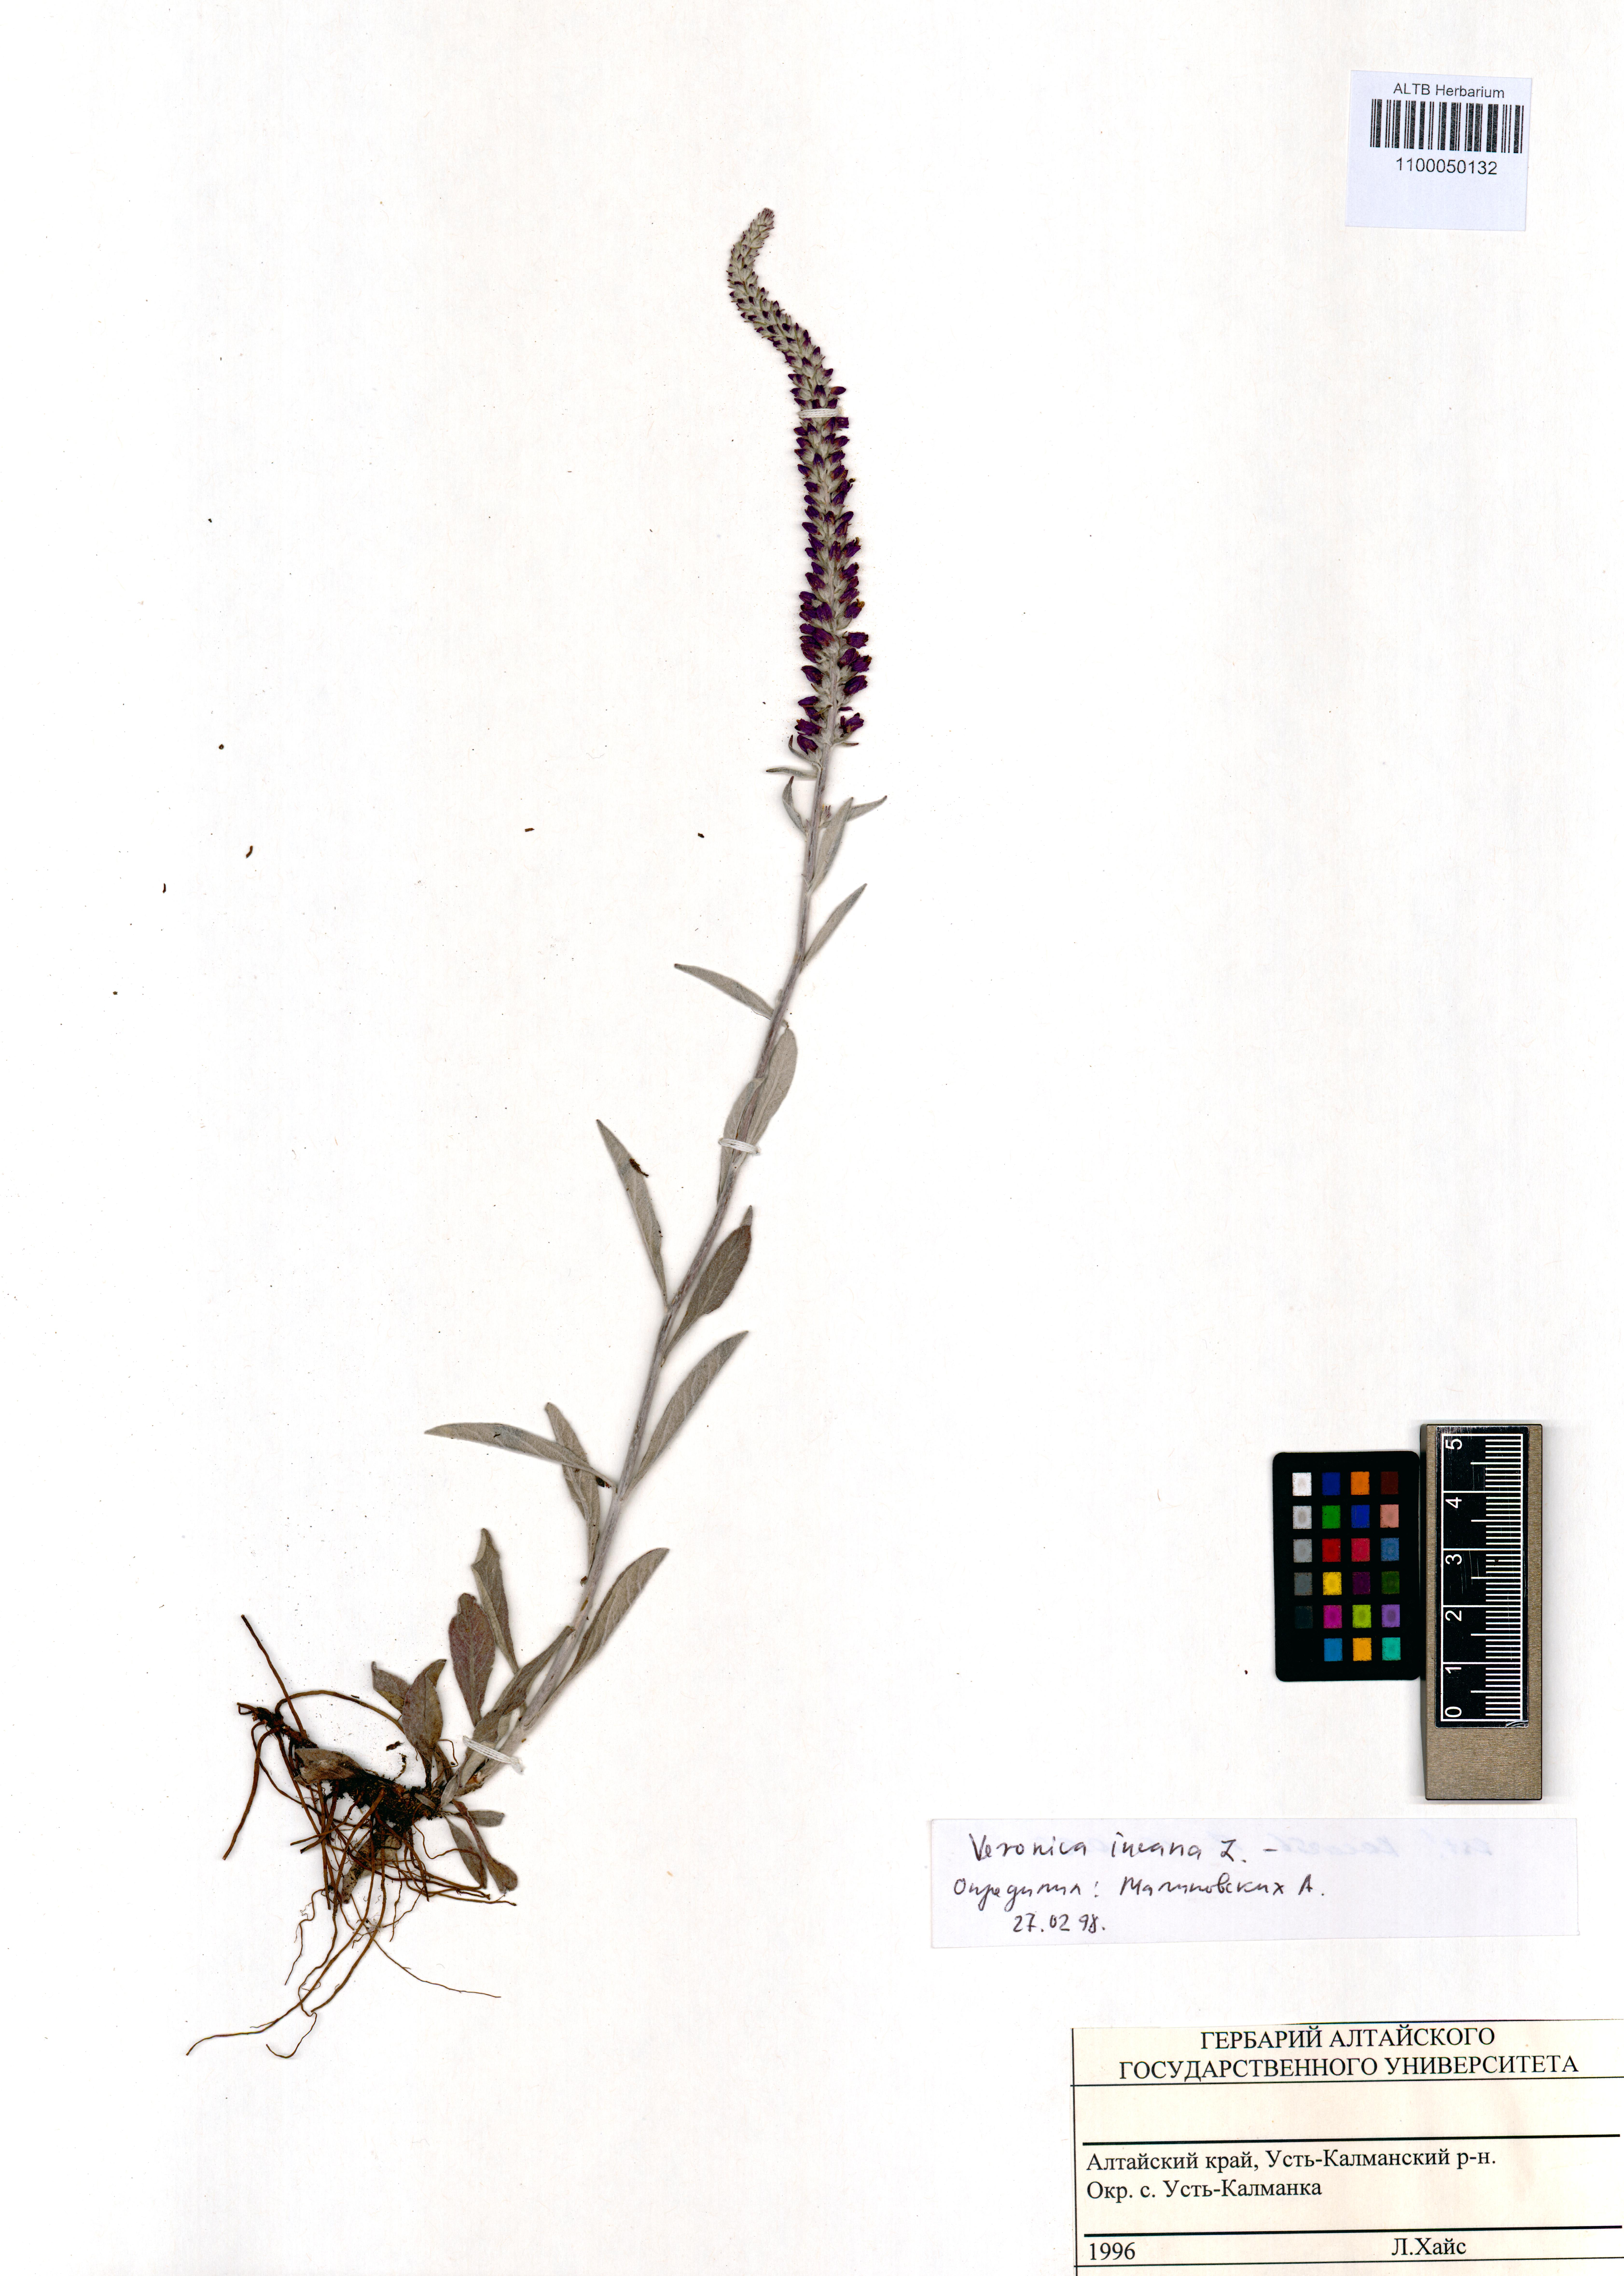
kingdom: Plantae
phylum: Tracheophyta
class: Magnoliopsida
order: Lamiales
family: Plantaginaceae
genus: Veronica
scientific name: Veronica incana
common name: Silver speedwell
